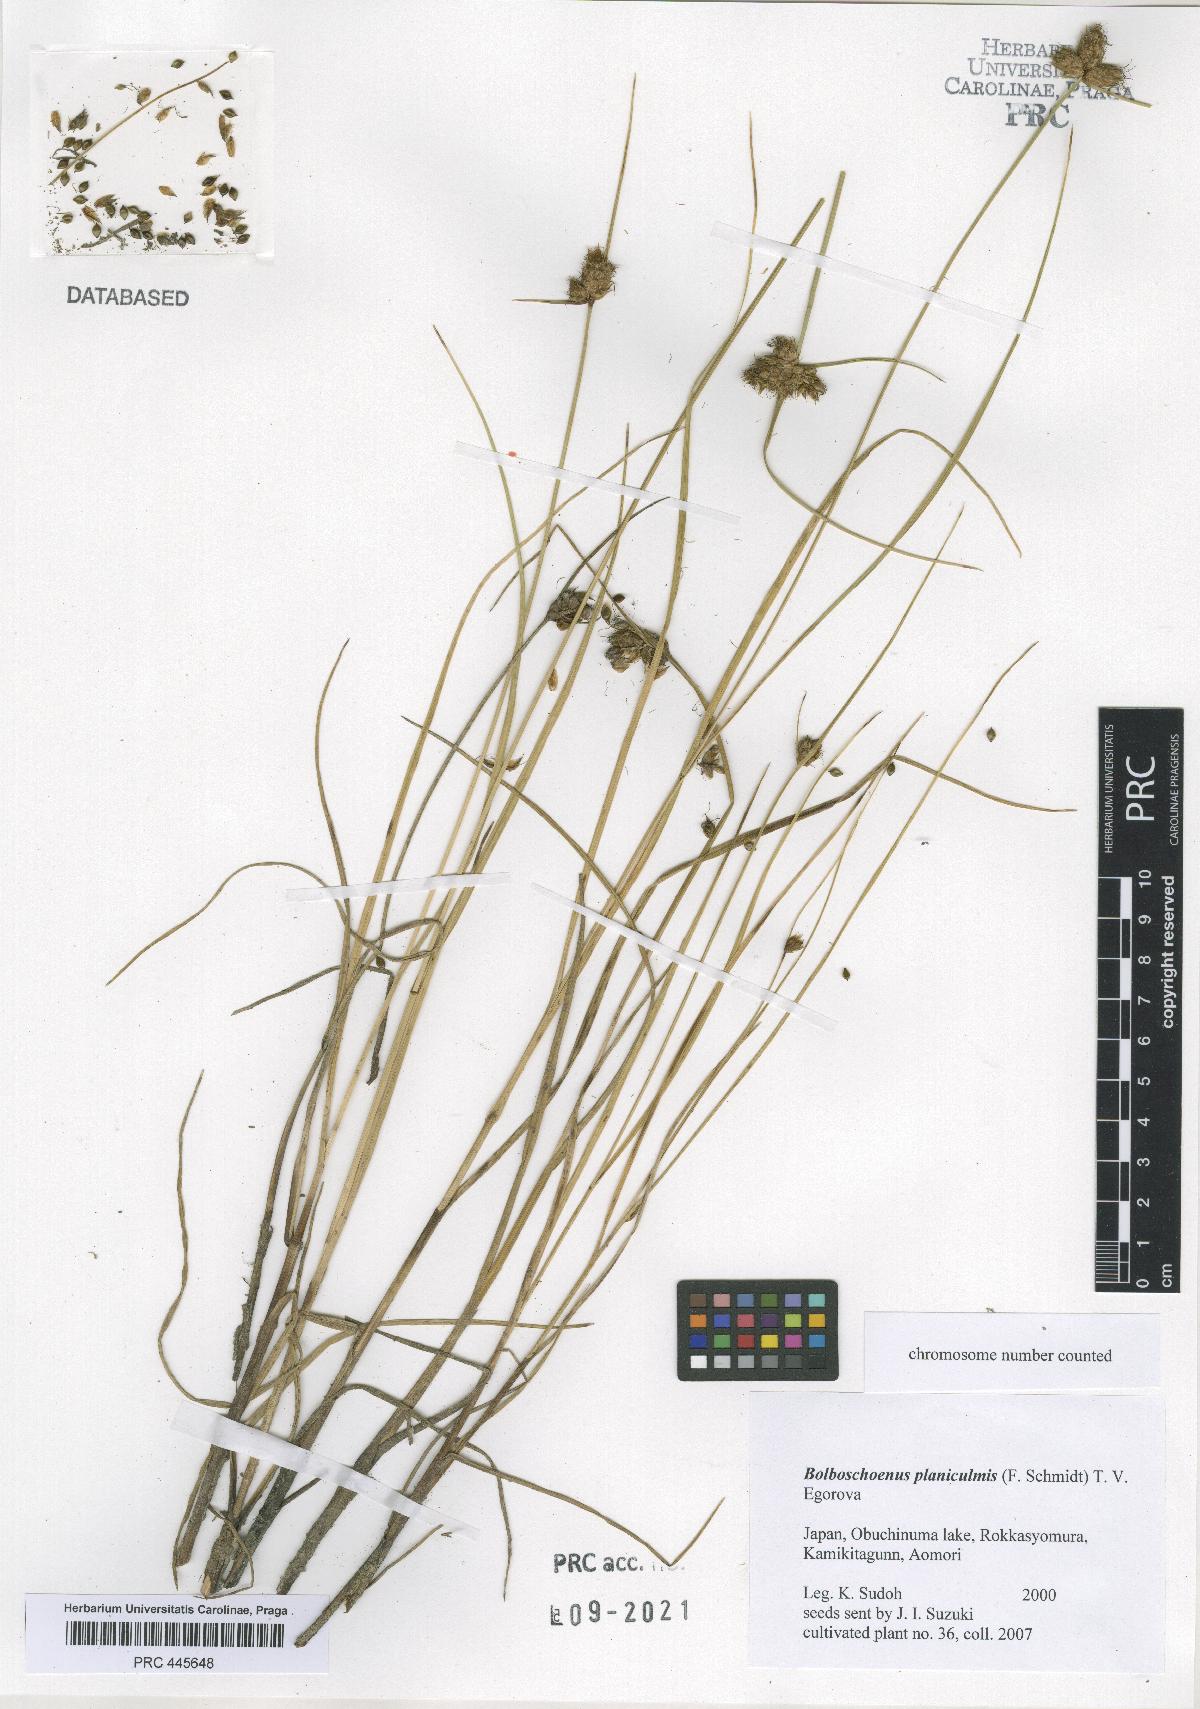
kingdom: Plantae
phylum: Tracheophyta
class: Liliopsida
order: Poales
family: Cyperaceae
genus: Bolboschoenus
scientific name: Bolboschoenus planiculmis
